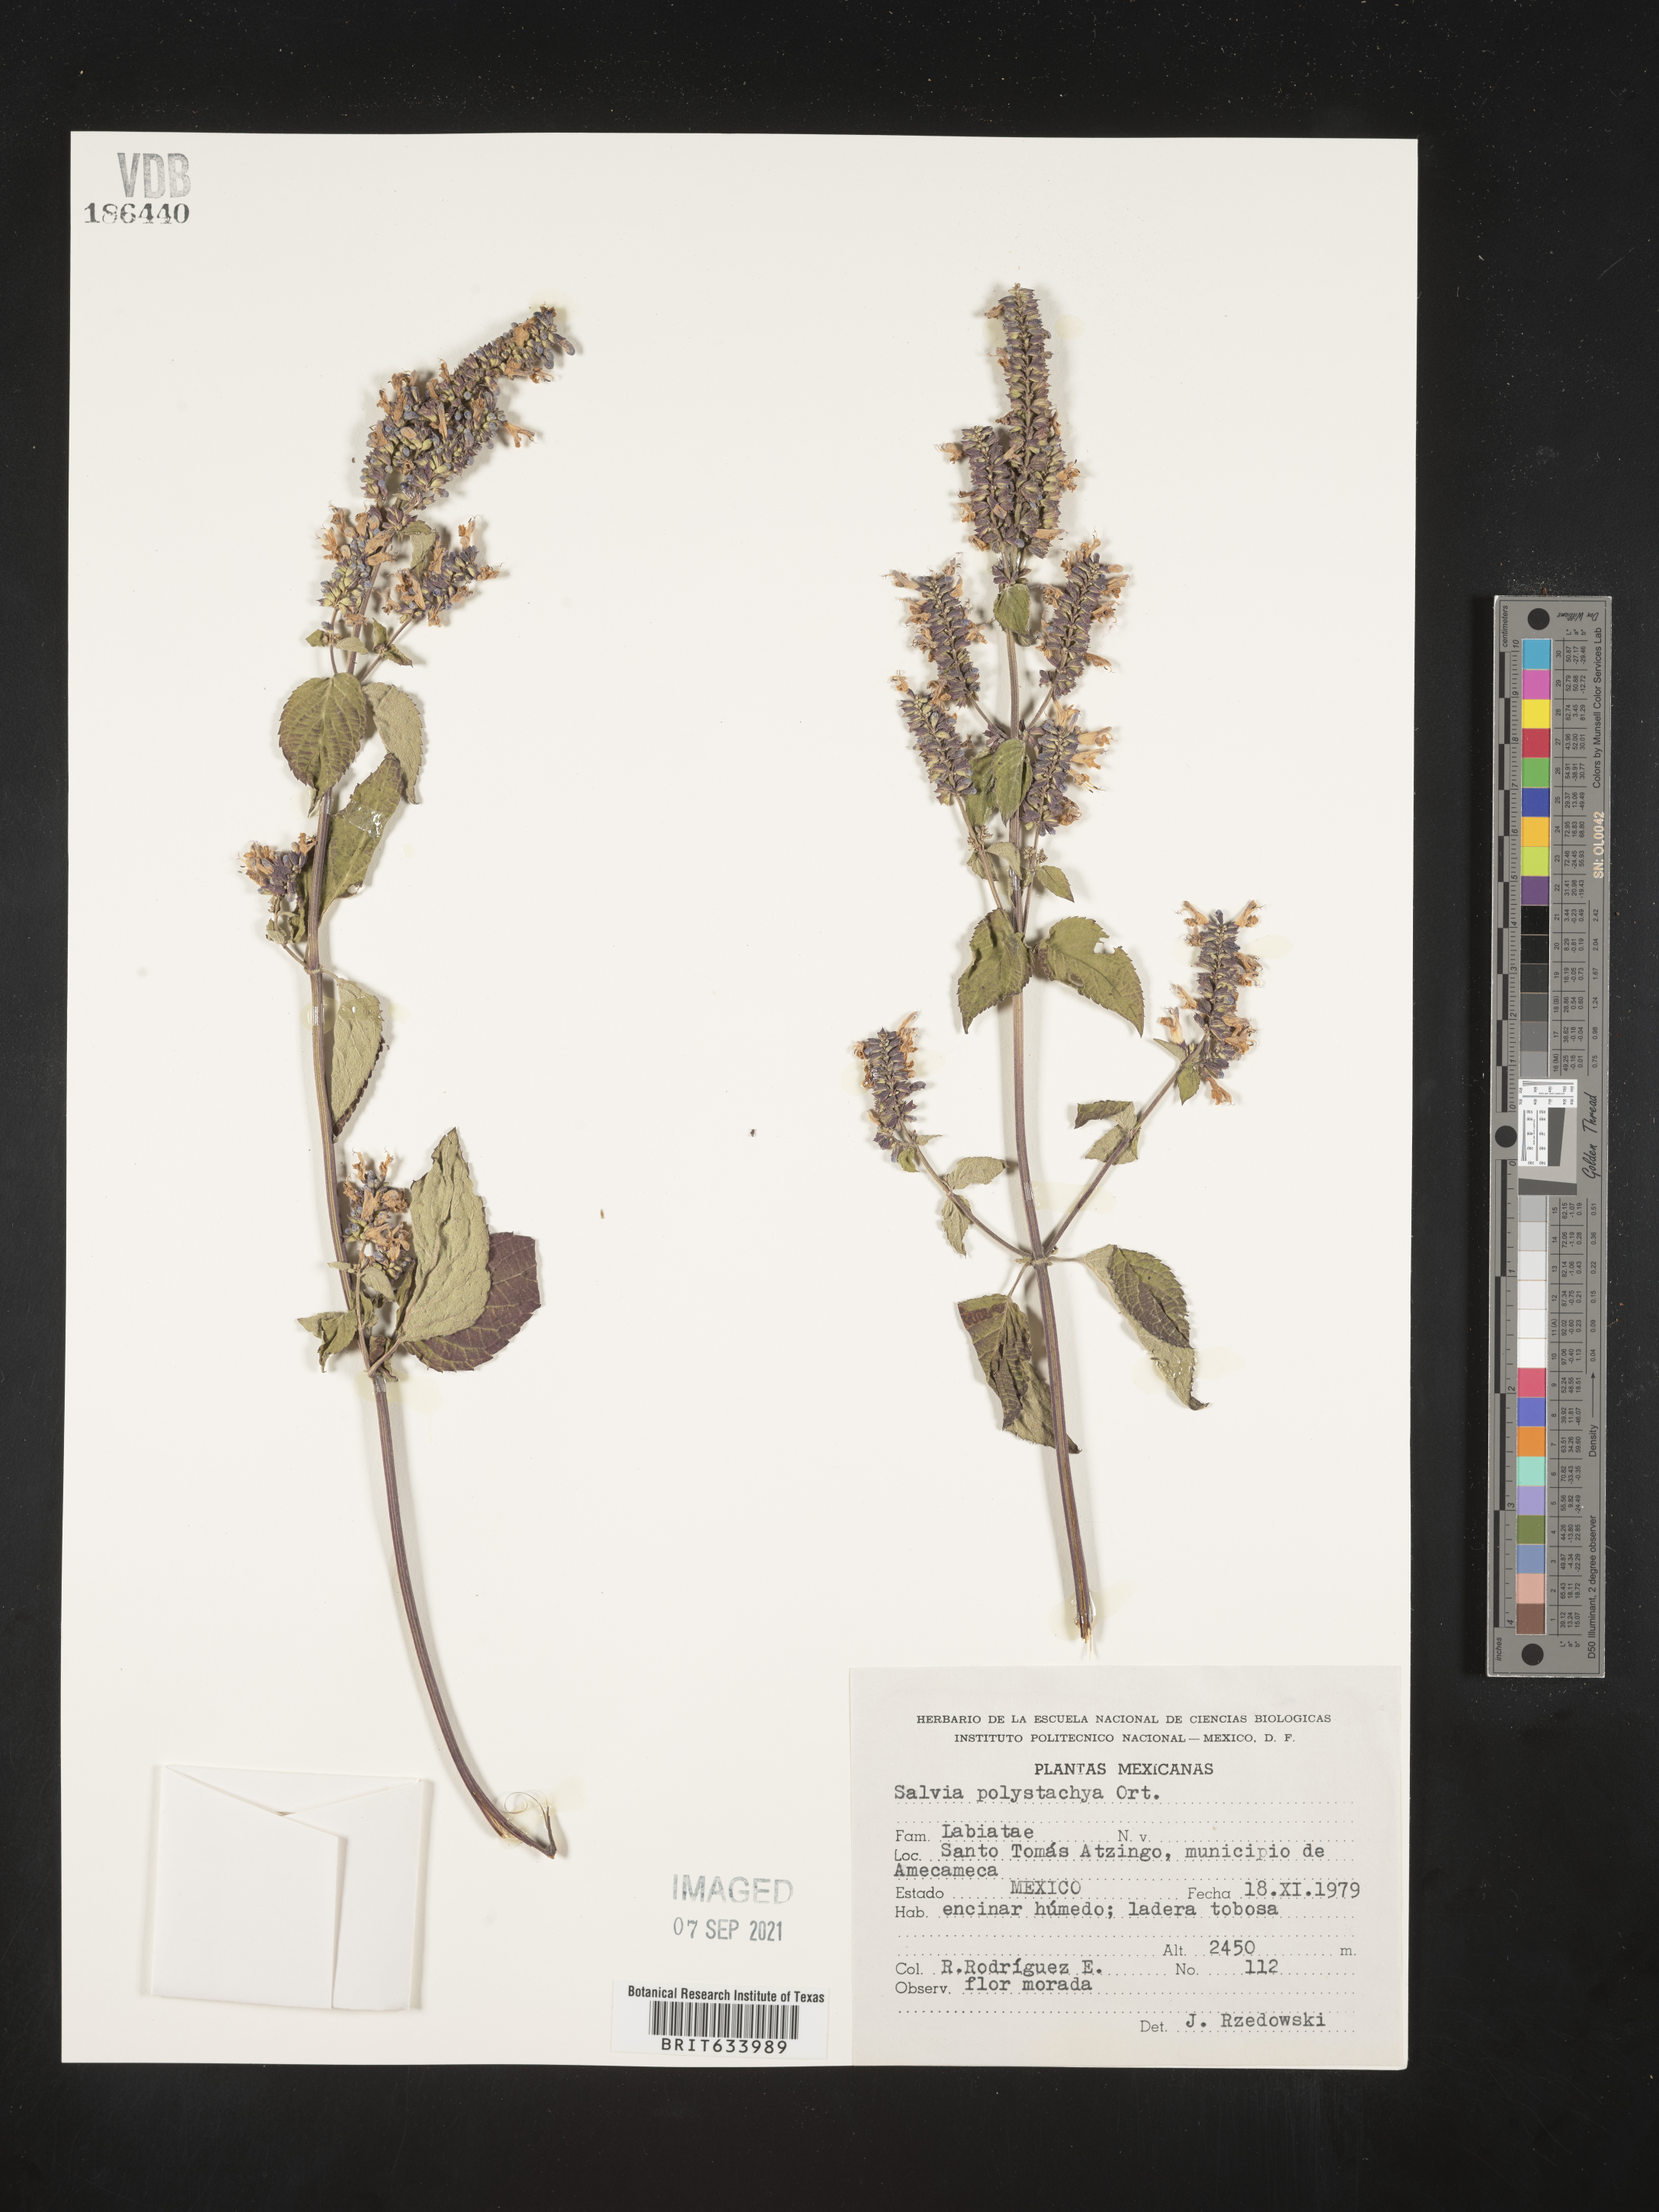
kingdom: Plantae
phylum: Tracheophyta
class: Magnoliopsida
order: Lamiales
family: Lamiaceae
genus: Salvia
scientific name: Salvia
